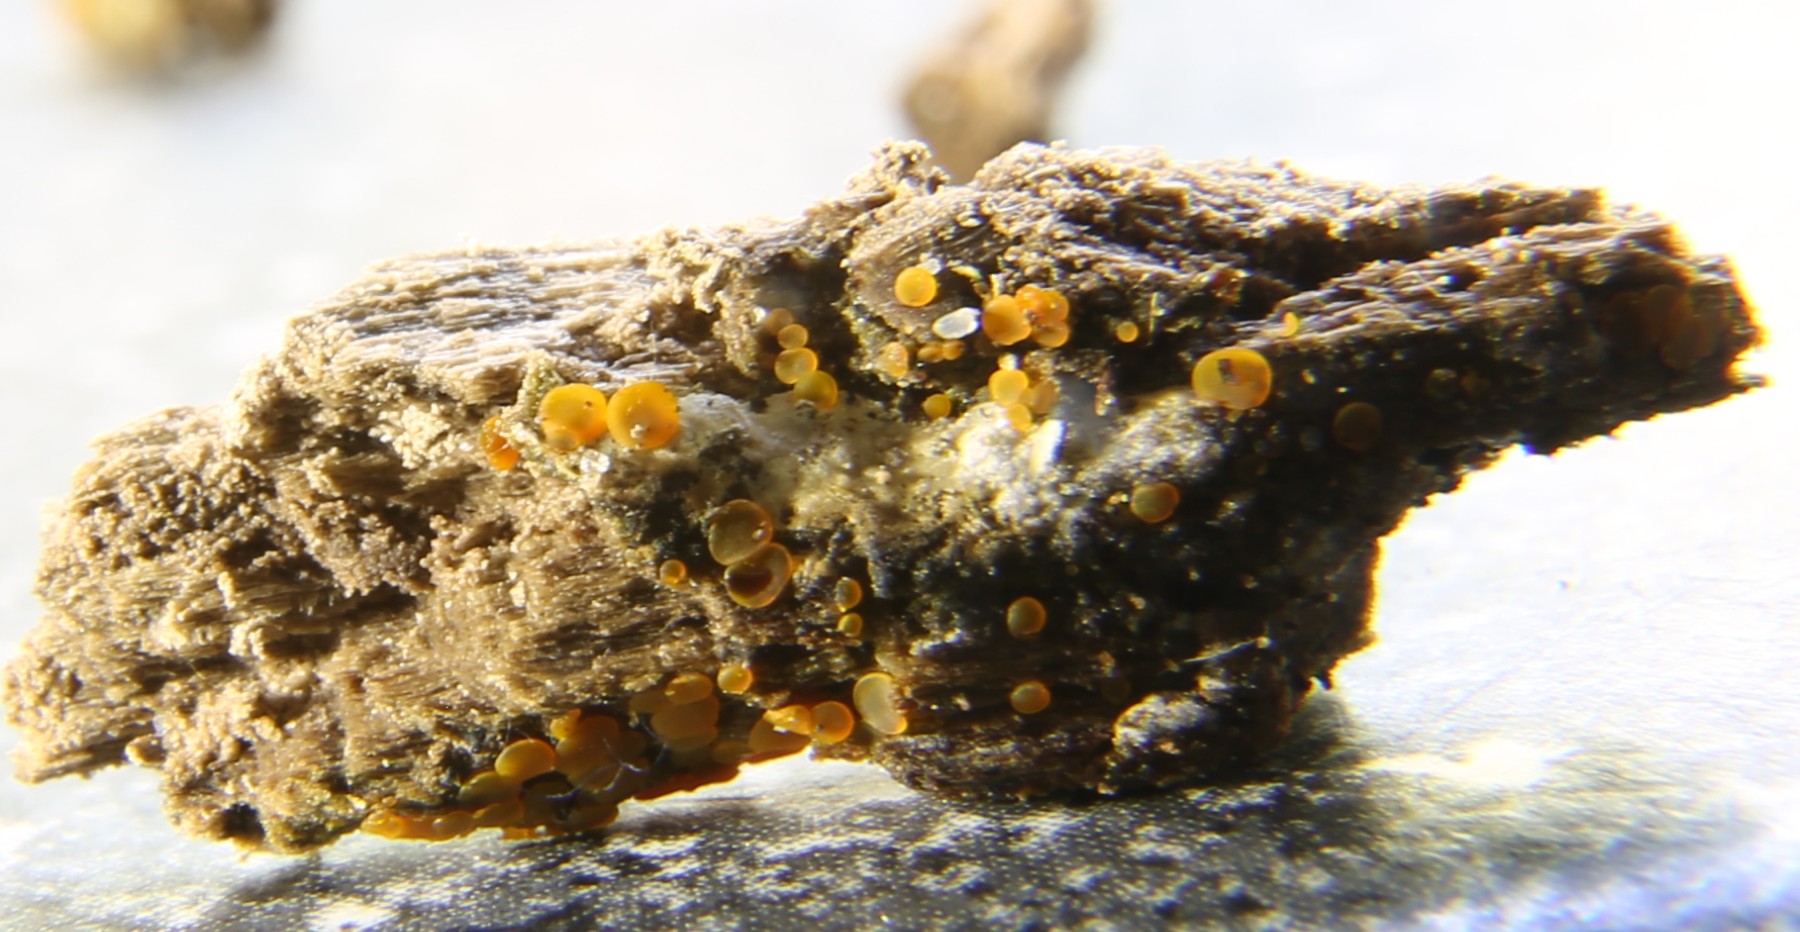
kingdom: Fungi
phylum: Ascomycota
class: Orbiliomycetes
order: Orbiliales
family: Orbiliaceae
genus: Orbilia
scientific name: Orbilia xanthostigma
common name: krumsporet voksskive
